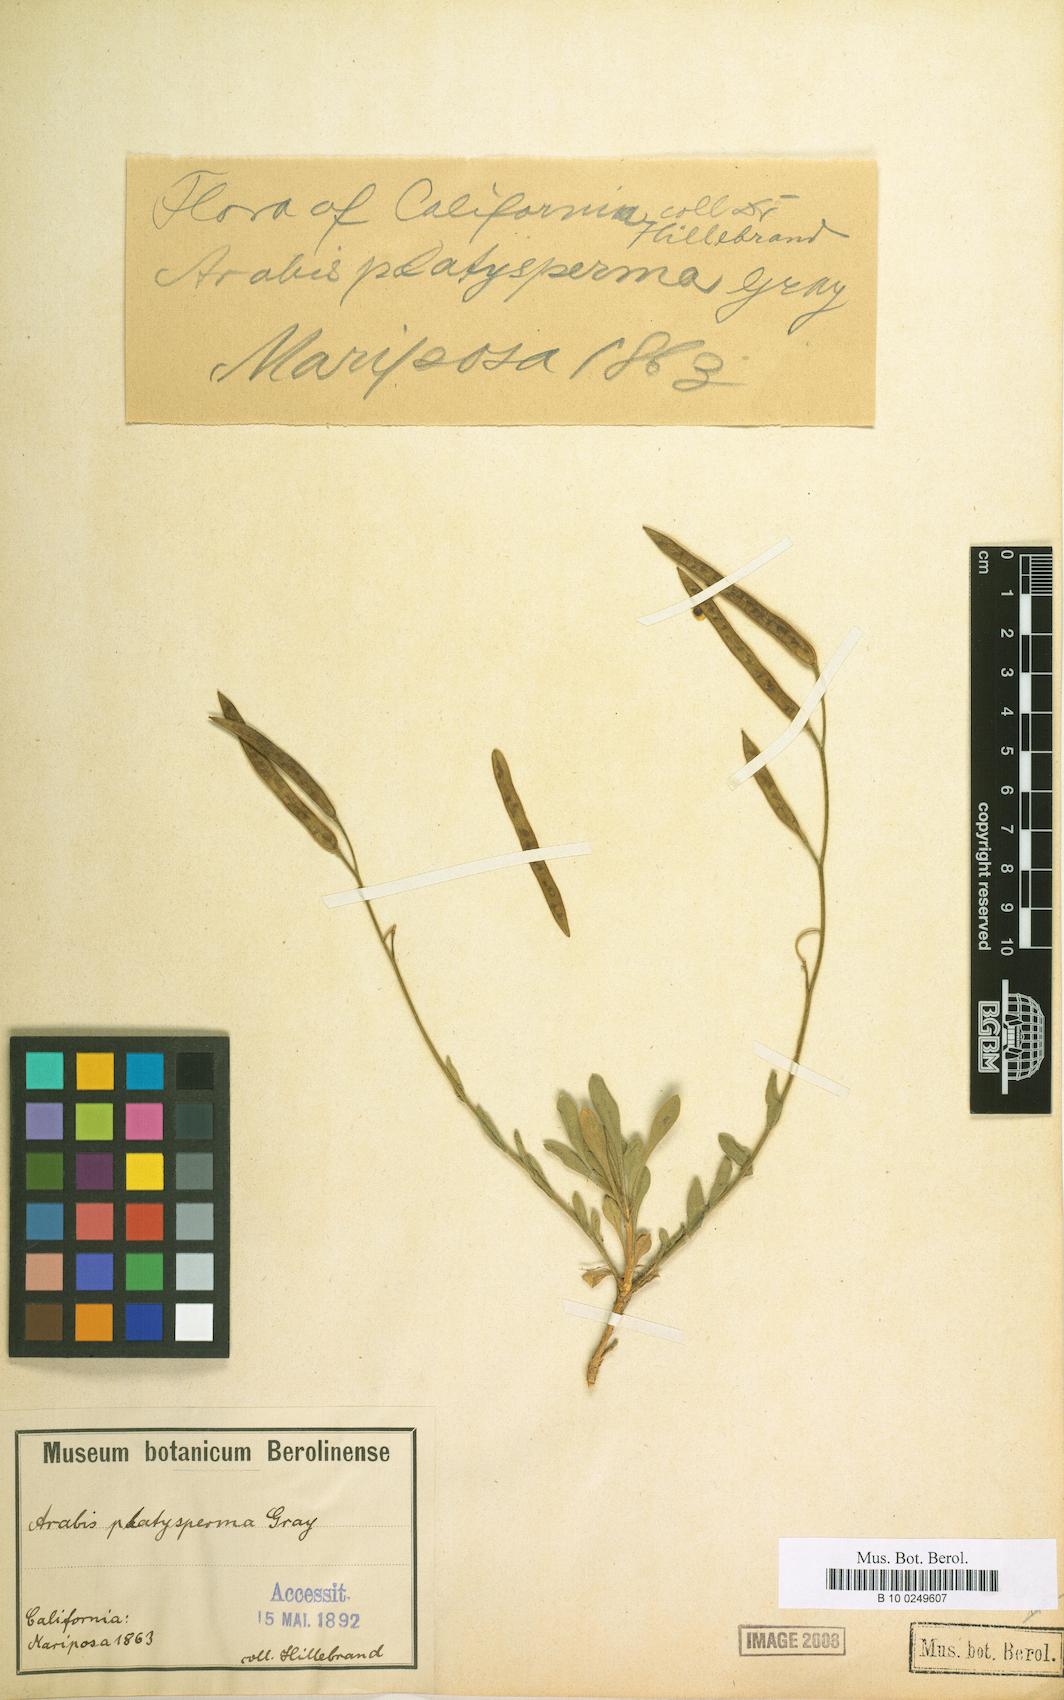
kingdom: Plantae
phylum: Tracheophyta
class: Magnoliopsida
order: Brassicales
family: Brassicaceae
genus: Boechera
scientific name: Boechera platysperma
